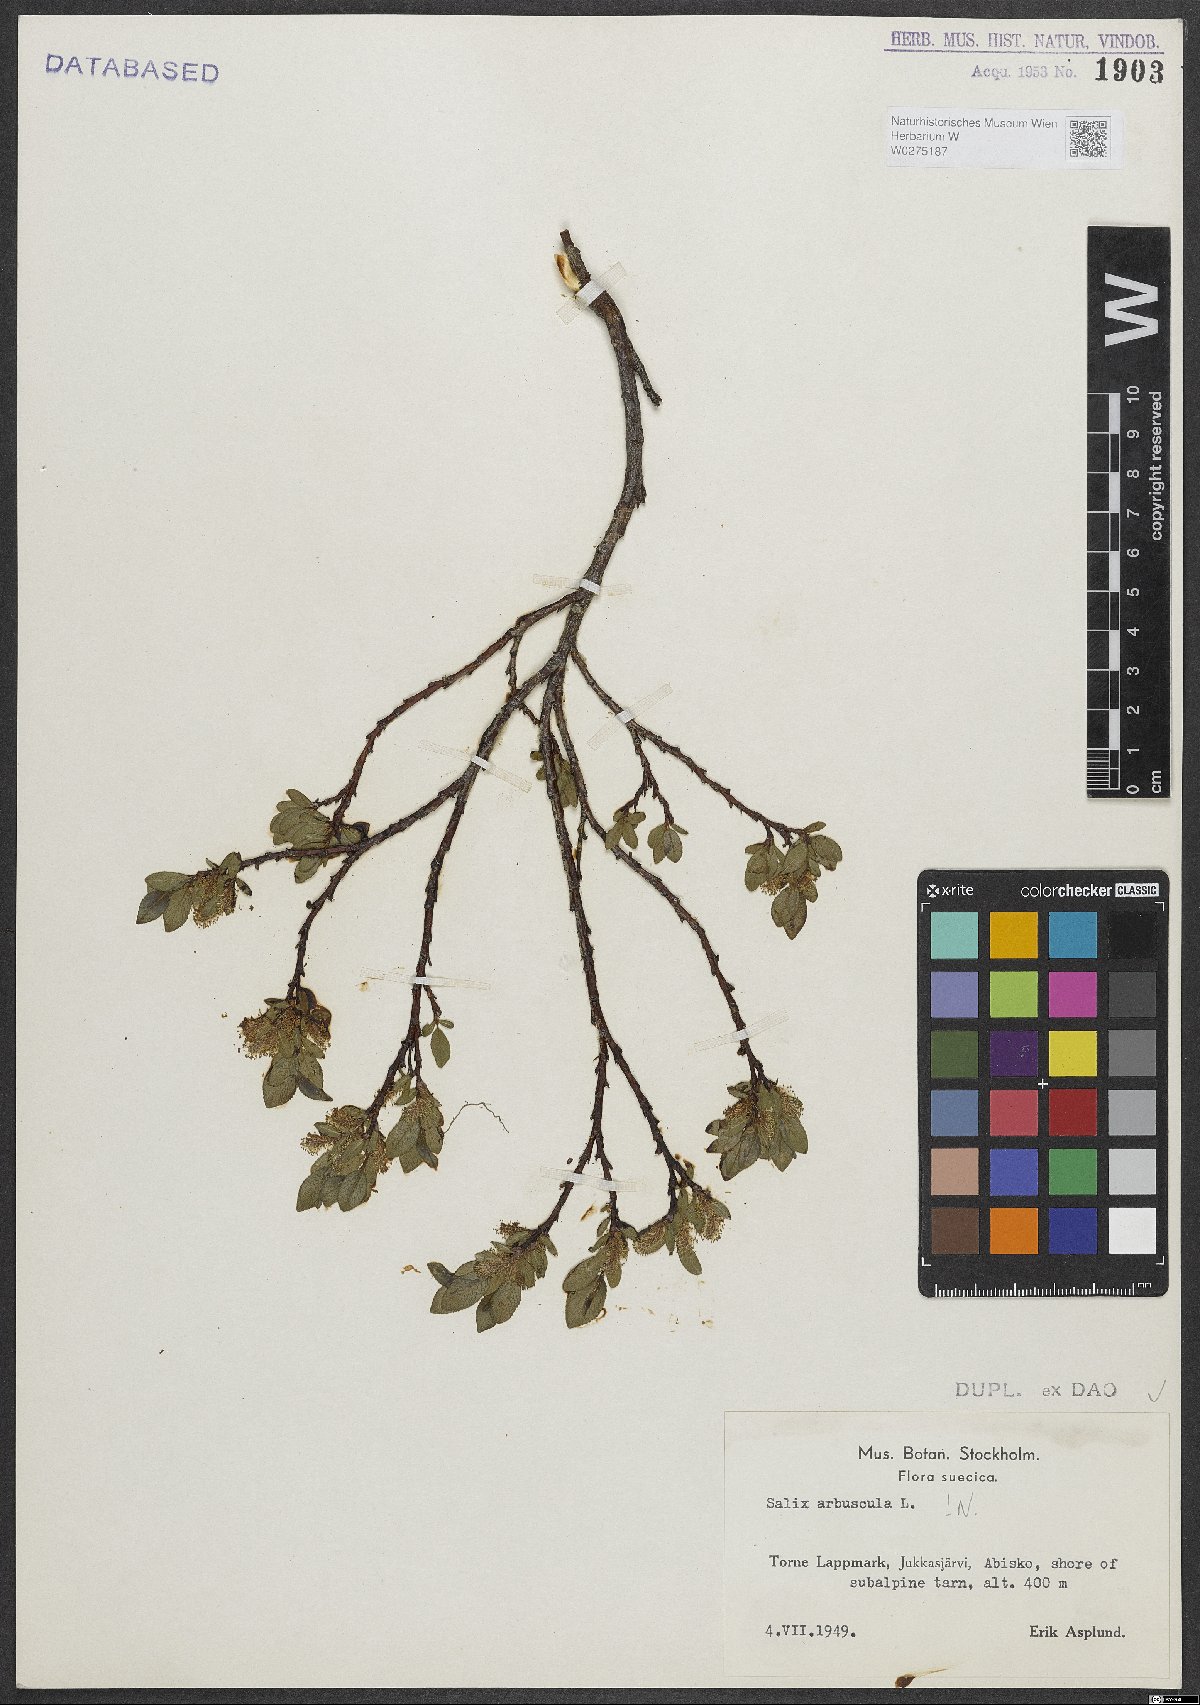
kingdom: Plantae
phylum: Tracheophyta
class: Magnoliopsida
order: Malpighiales
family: Salicaceae
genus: Salix
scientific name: Salix arbuscula
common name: Mountain willow
